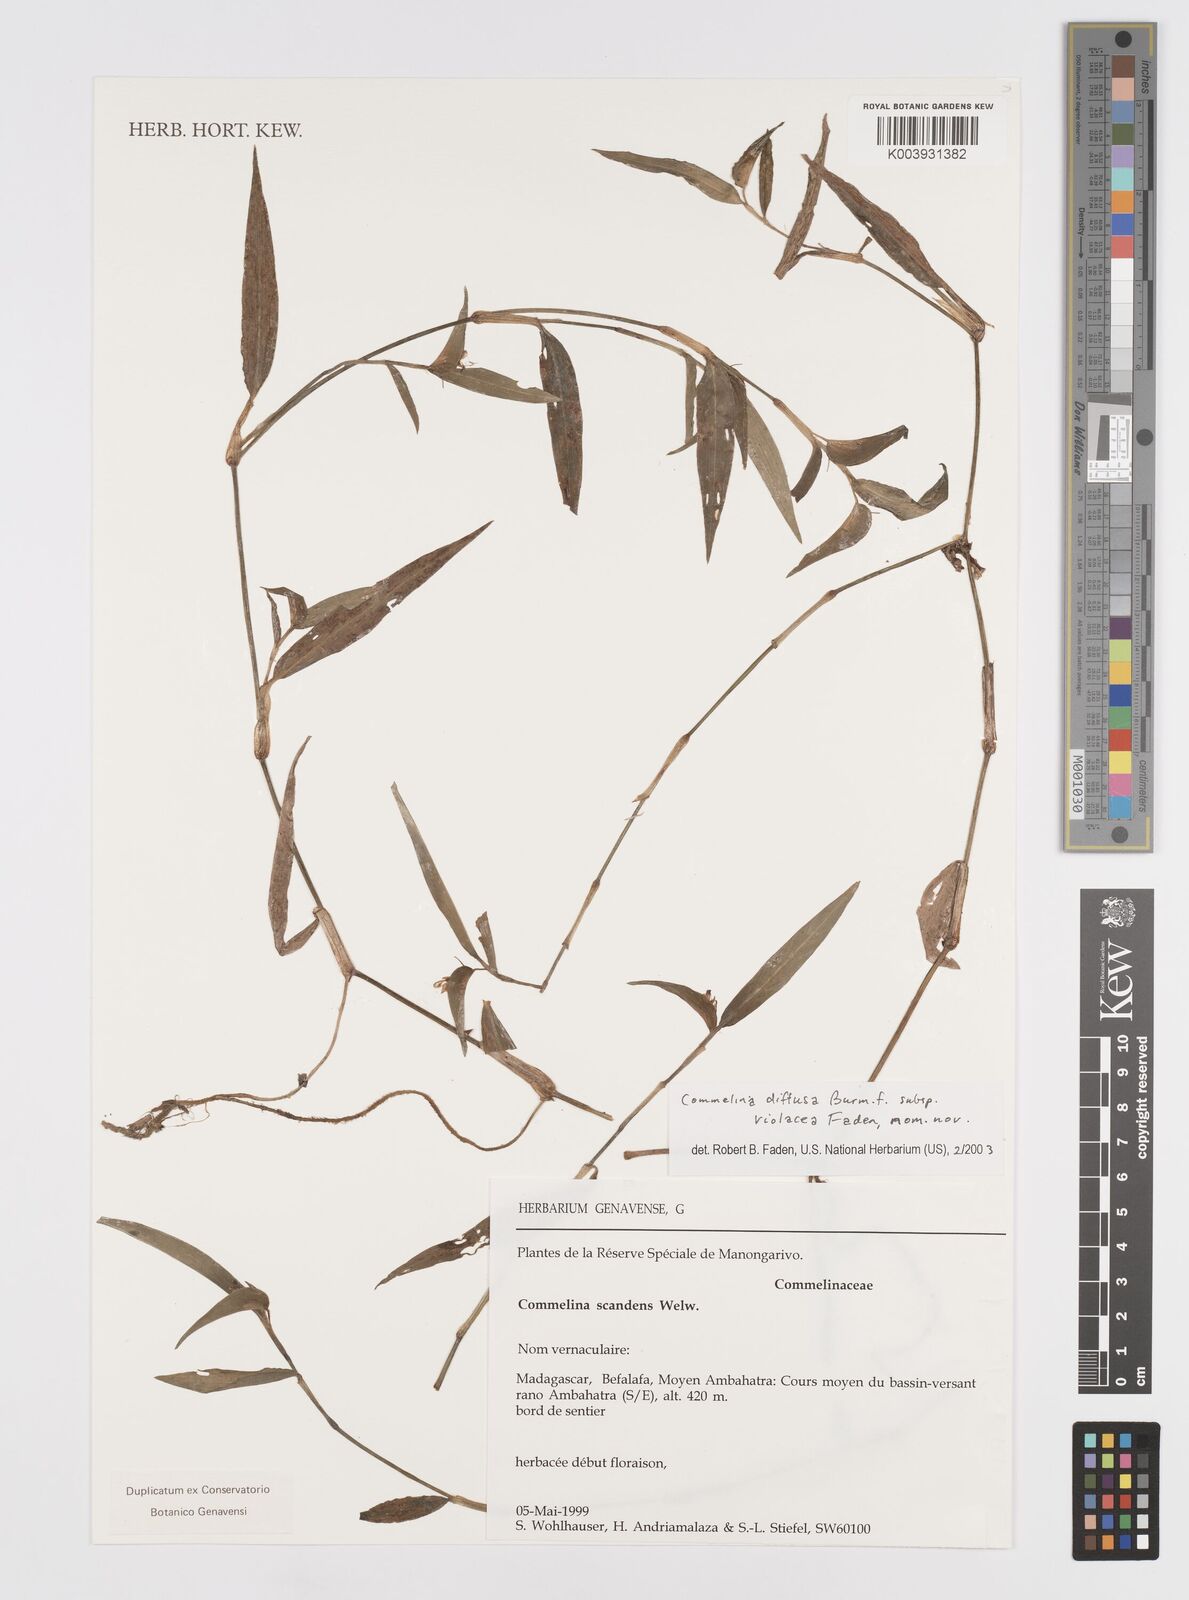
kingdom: Plantae
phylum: Tracheophyta
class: Liliopsida
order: Commelinales
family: Commelinaceae
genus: Commelina
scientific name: Commelina diffusa
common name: Climbing dayflower
